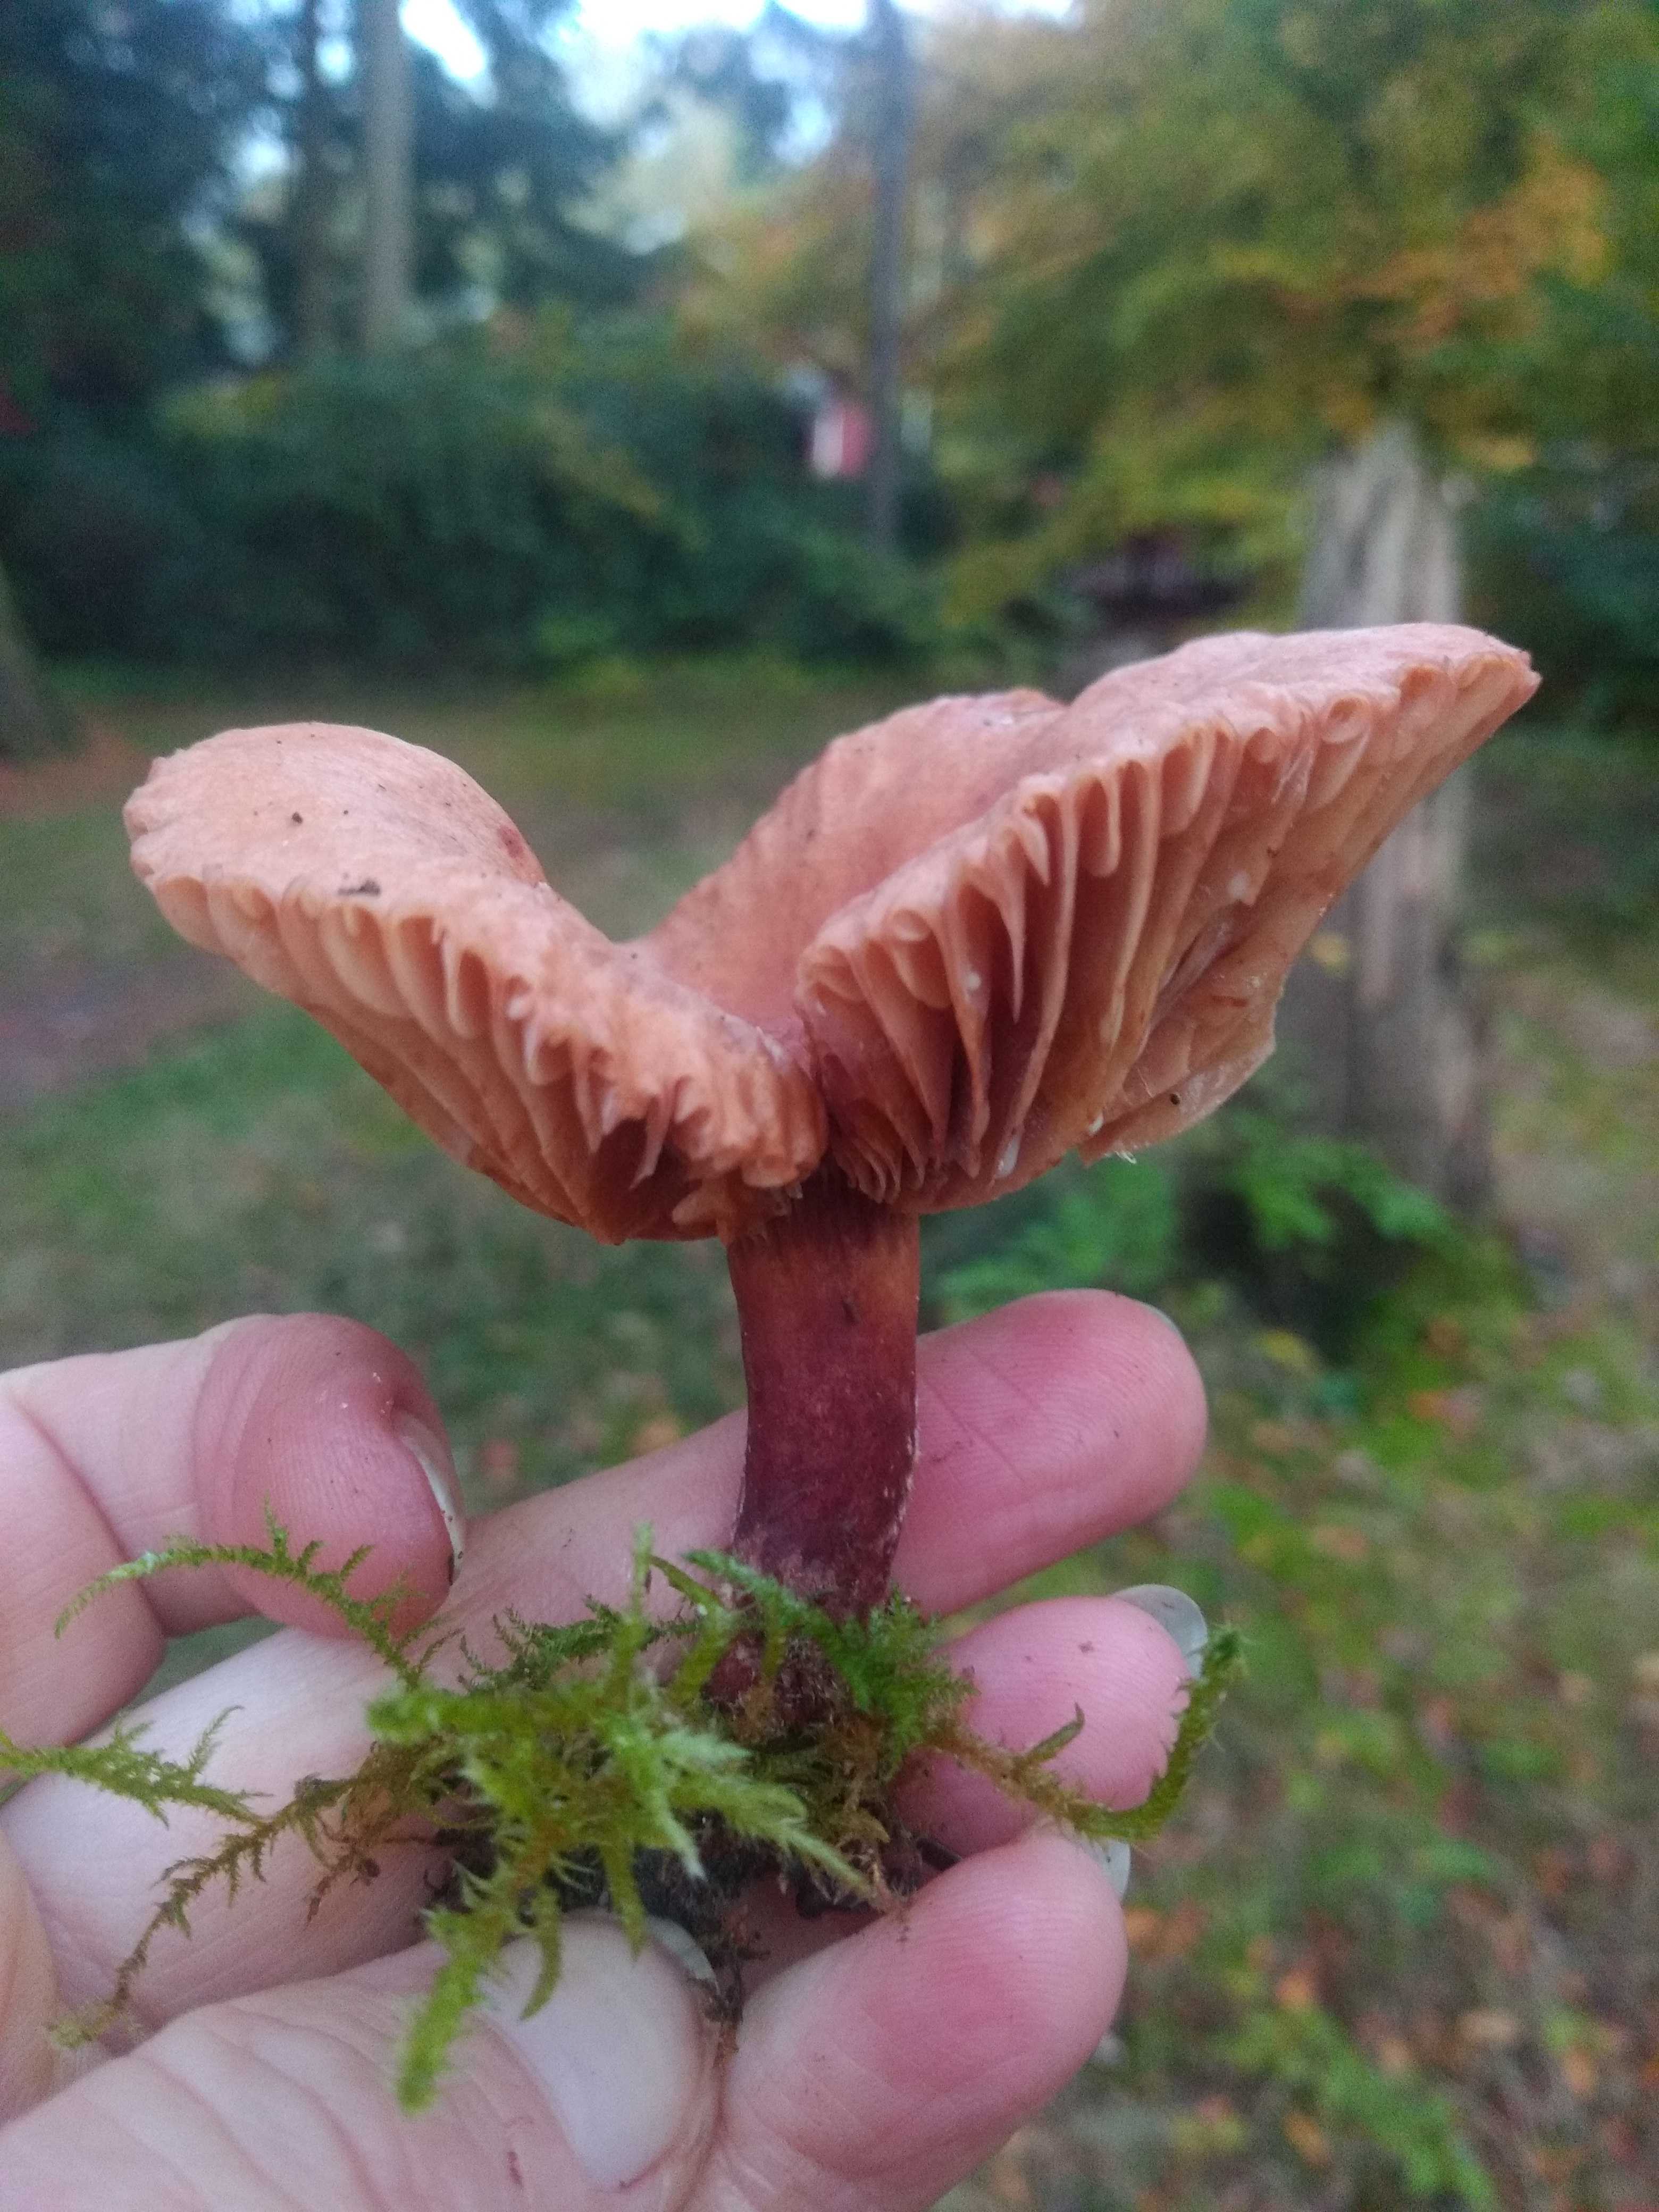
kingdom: Fungi
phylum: Basidiomycota
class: Agaricomycetes
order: Russulales
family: Russulaceae
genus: Lactarius
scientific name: Lactarius
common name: mælkehat
